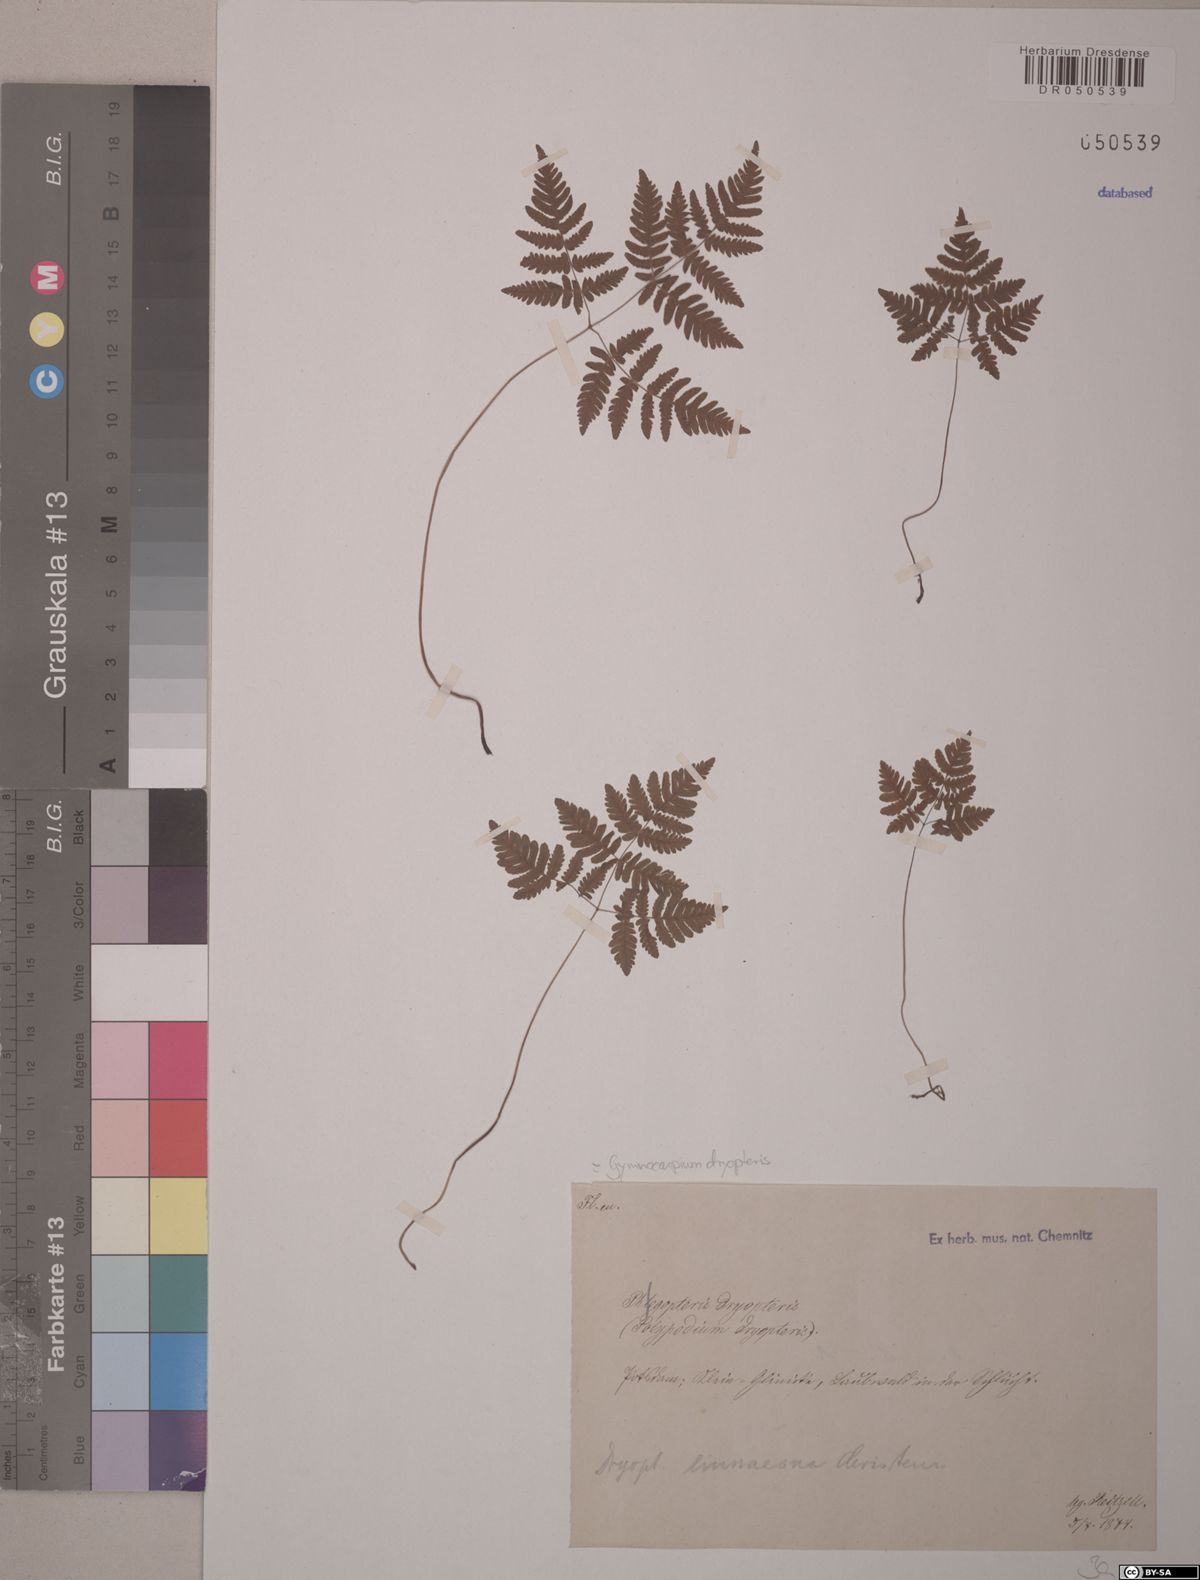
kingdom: Plantae
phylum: Tracheophyta
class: Polypodiopsida
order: Polypodiales
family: Cystopteridaceae
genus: Gymnocarpium
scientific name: Gymnocarpium dryopteris
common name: Oak fern
